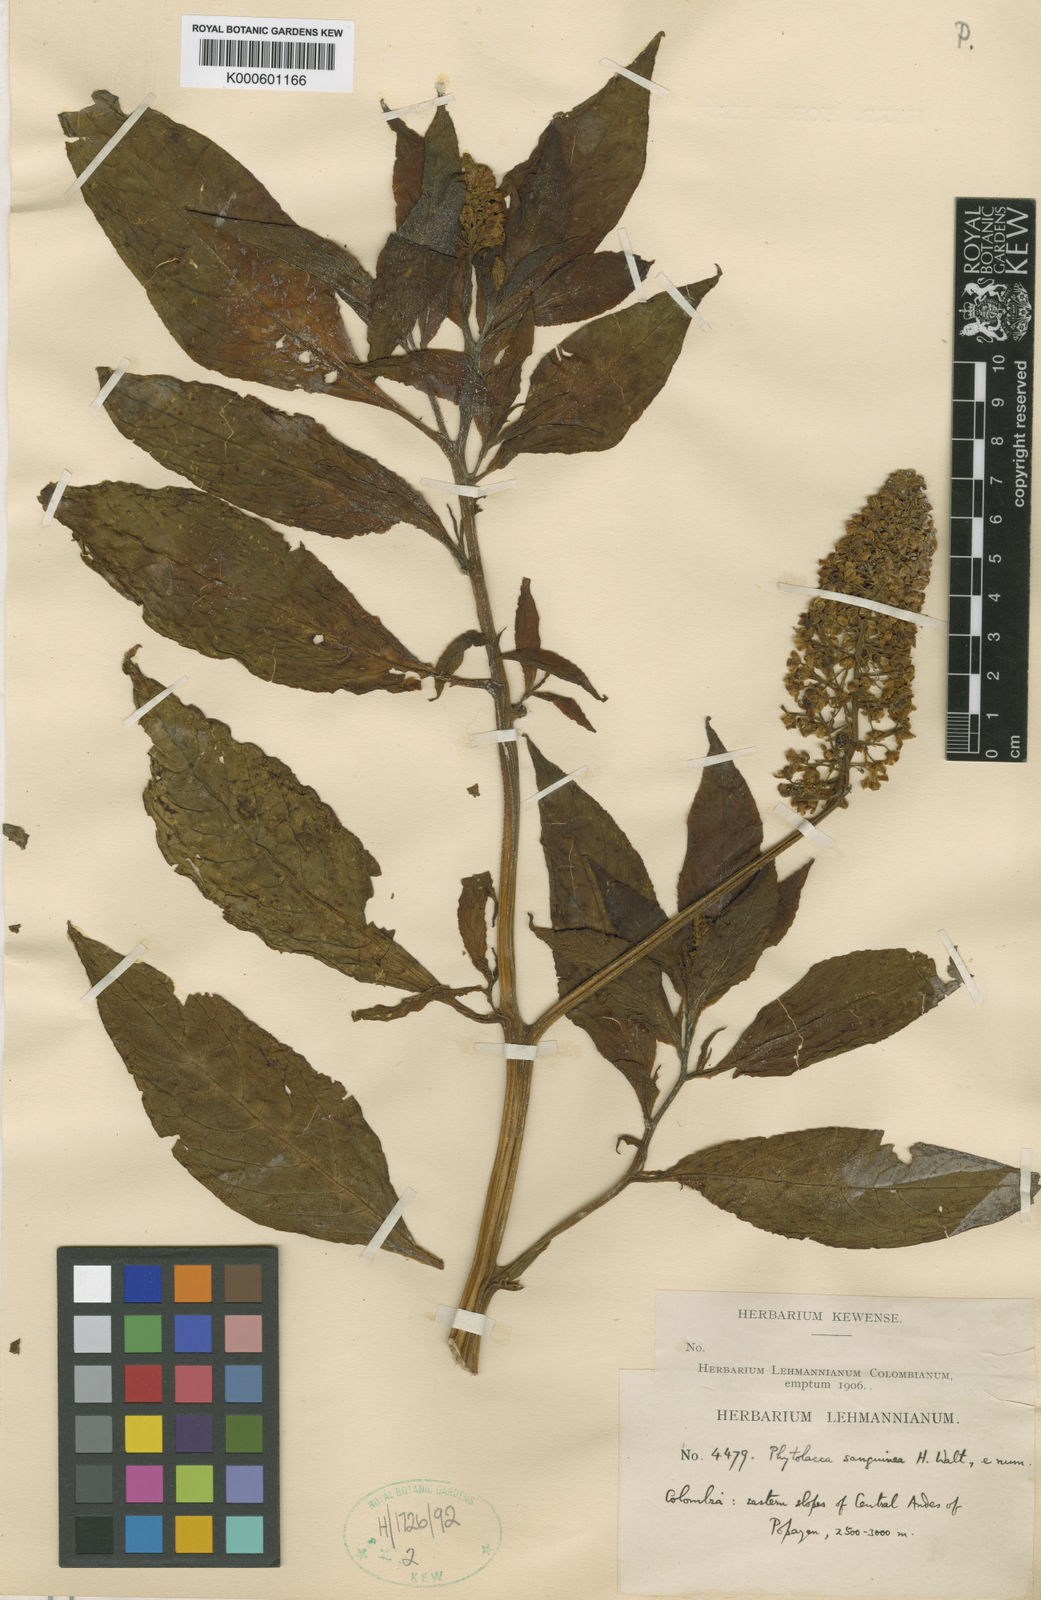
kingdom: Plantae
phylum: Tracheophyta
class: Magnoliopsida
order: Caryophyllales
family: Phytolaccaceae
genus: Phytolacca
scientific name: Phytolacca sanguinea
